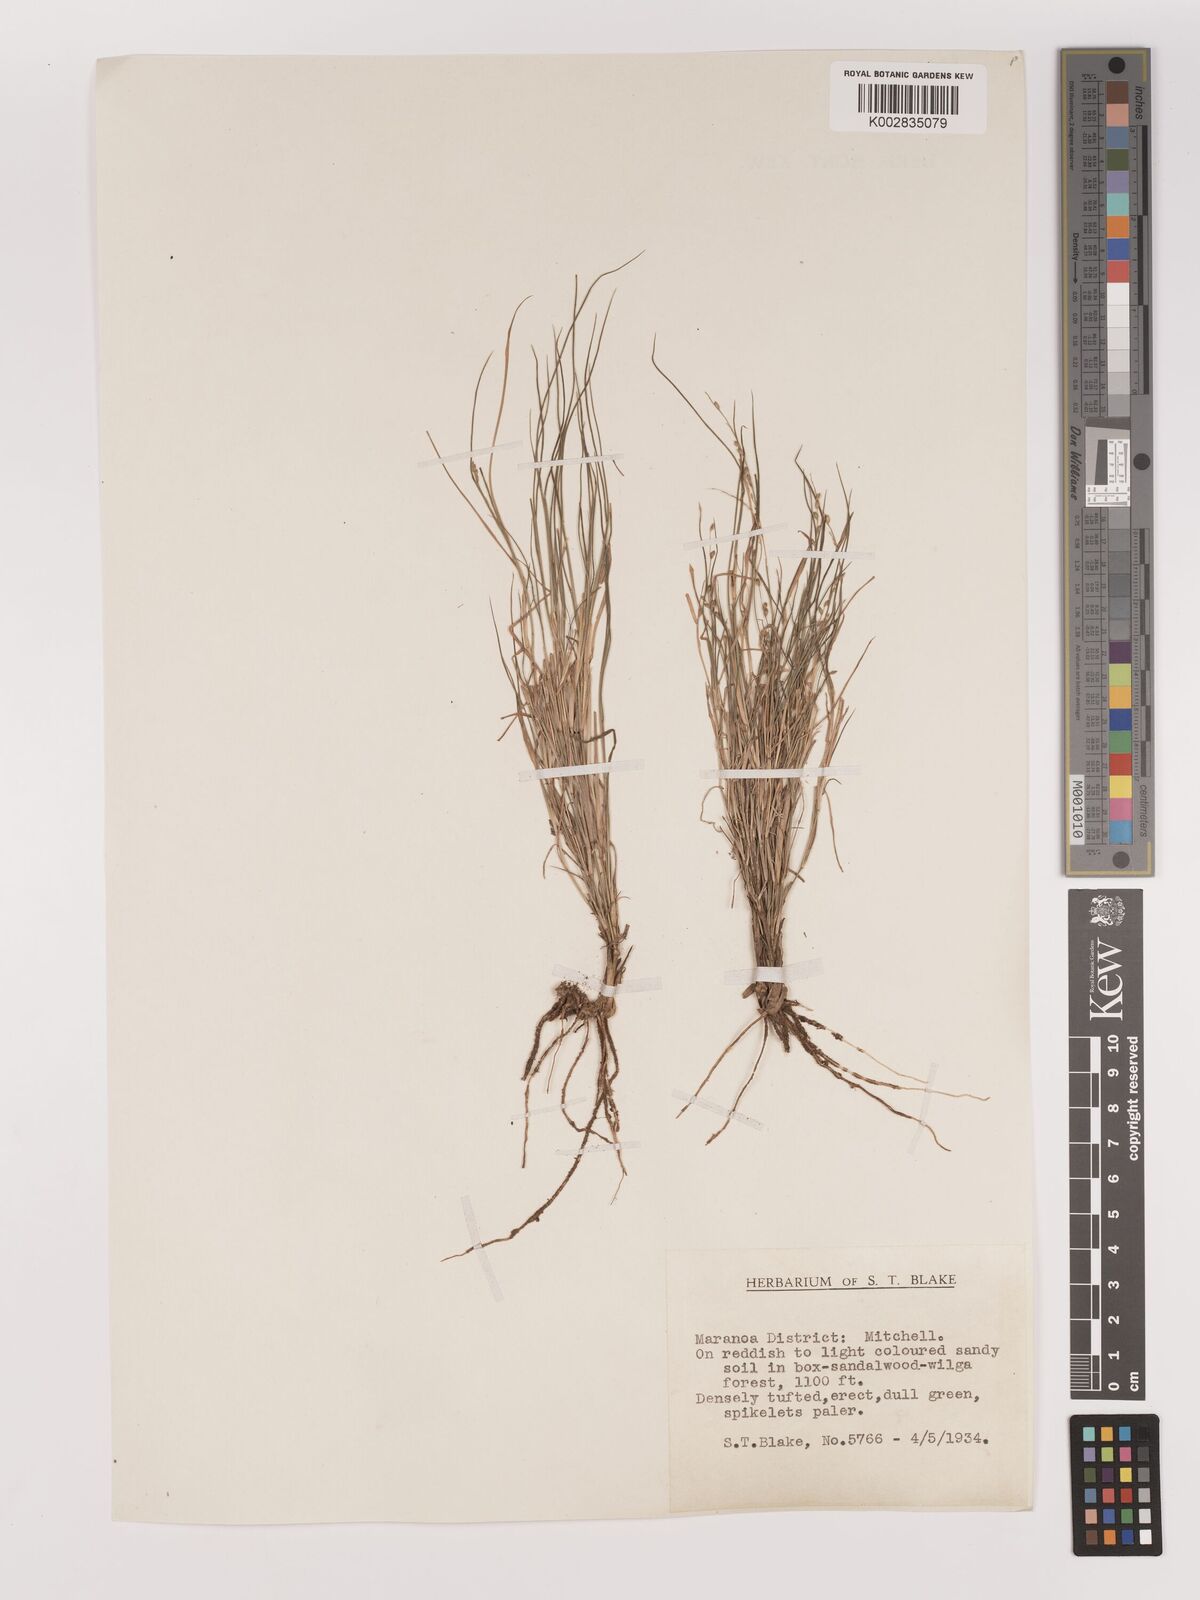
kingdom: Plantae
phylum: Tracheophyta
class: Liliopsida
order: Poales
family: Poaceae
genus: Setaria
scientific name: Setaria
